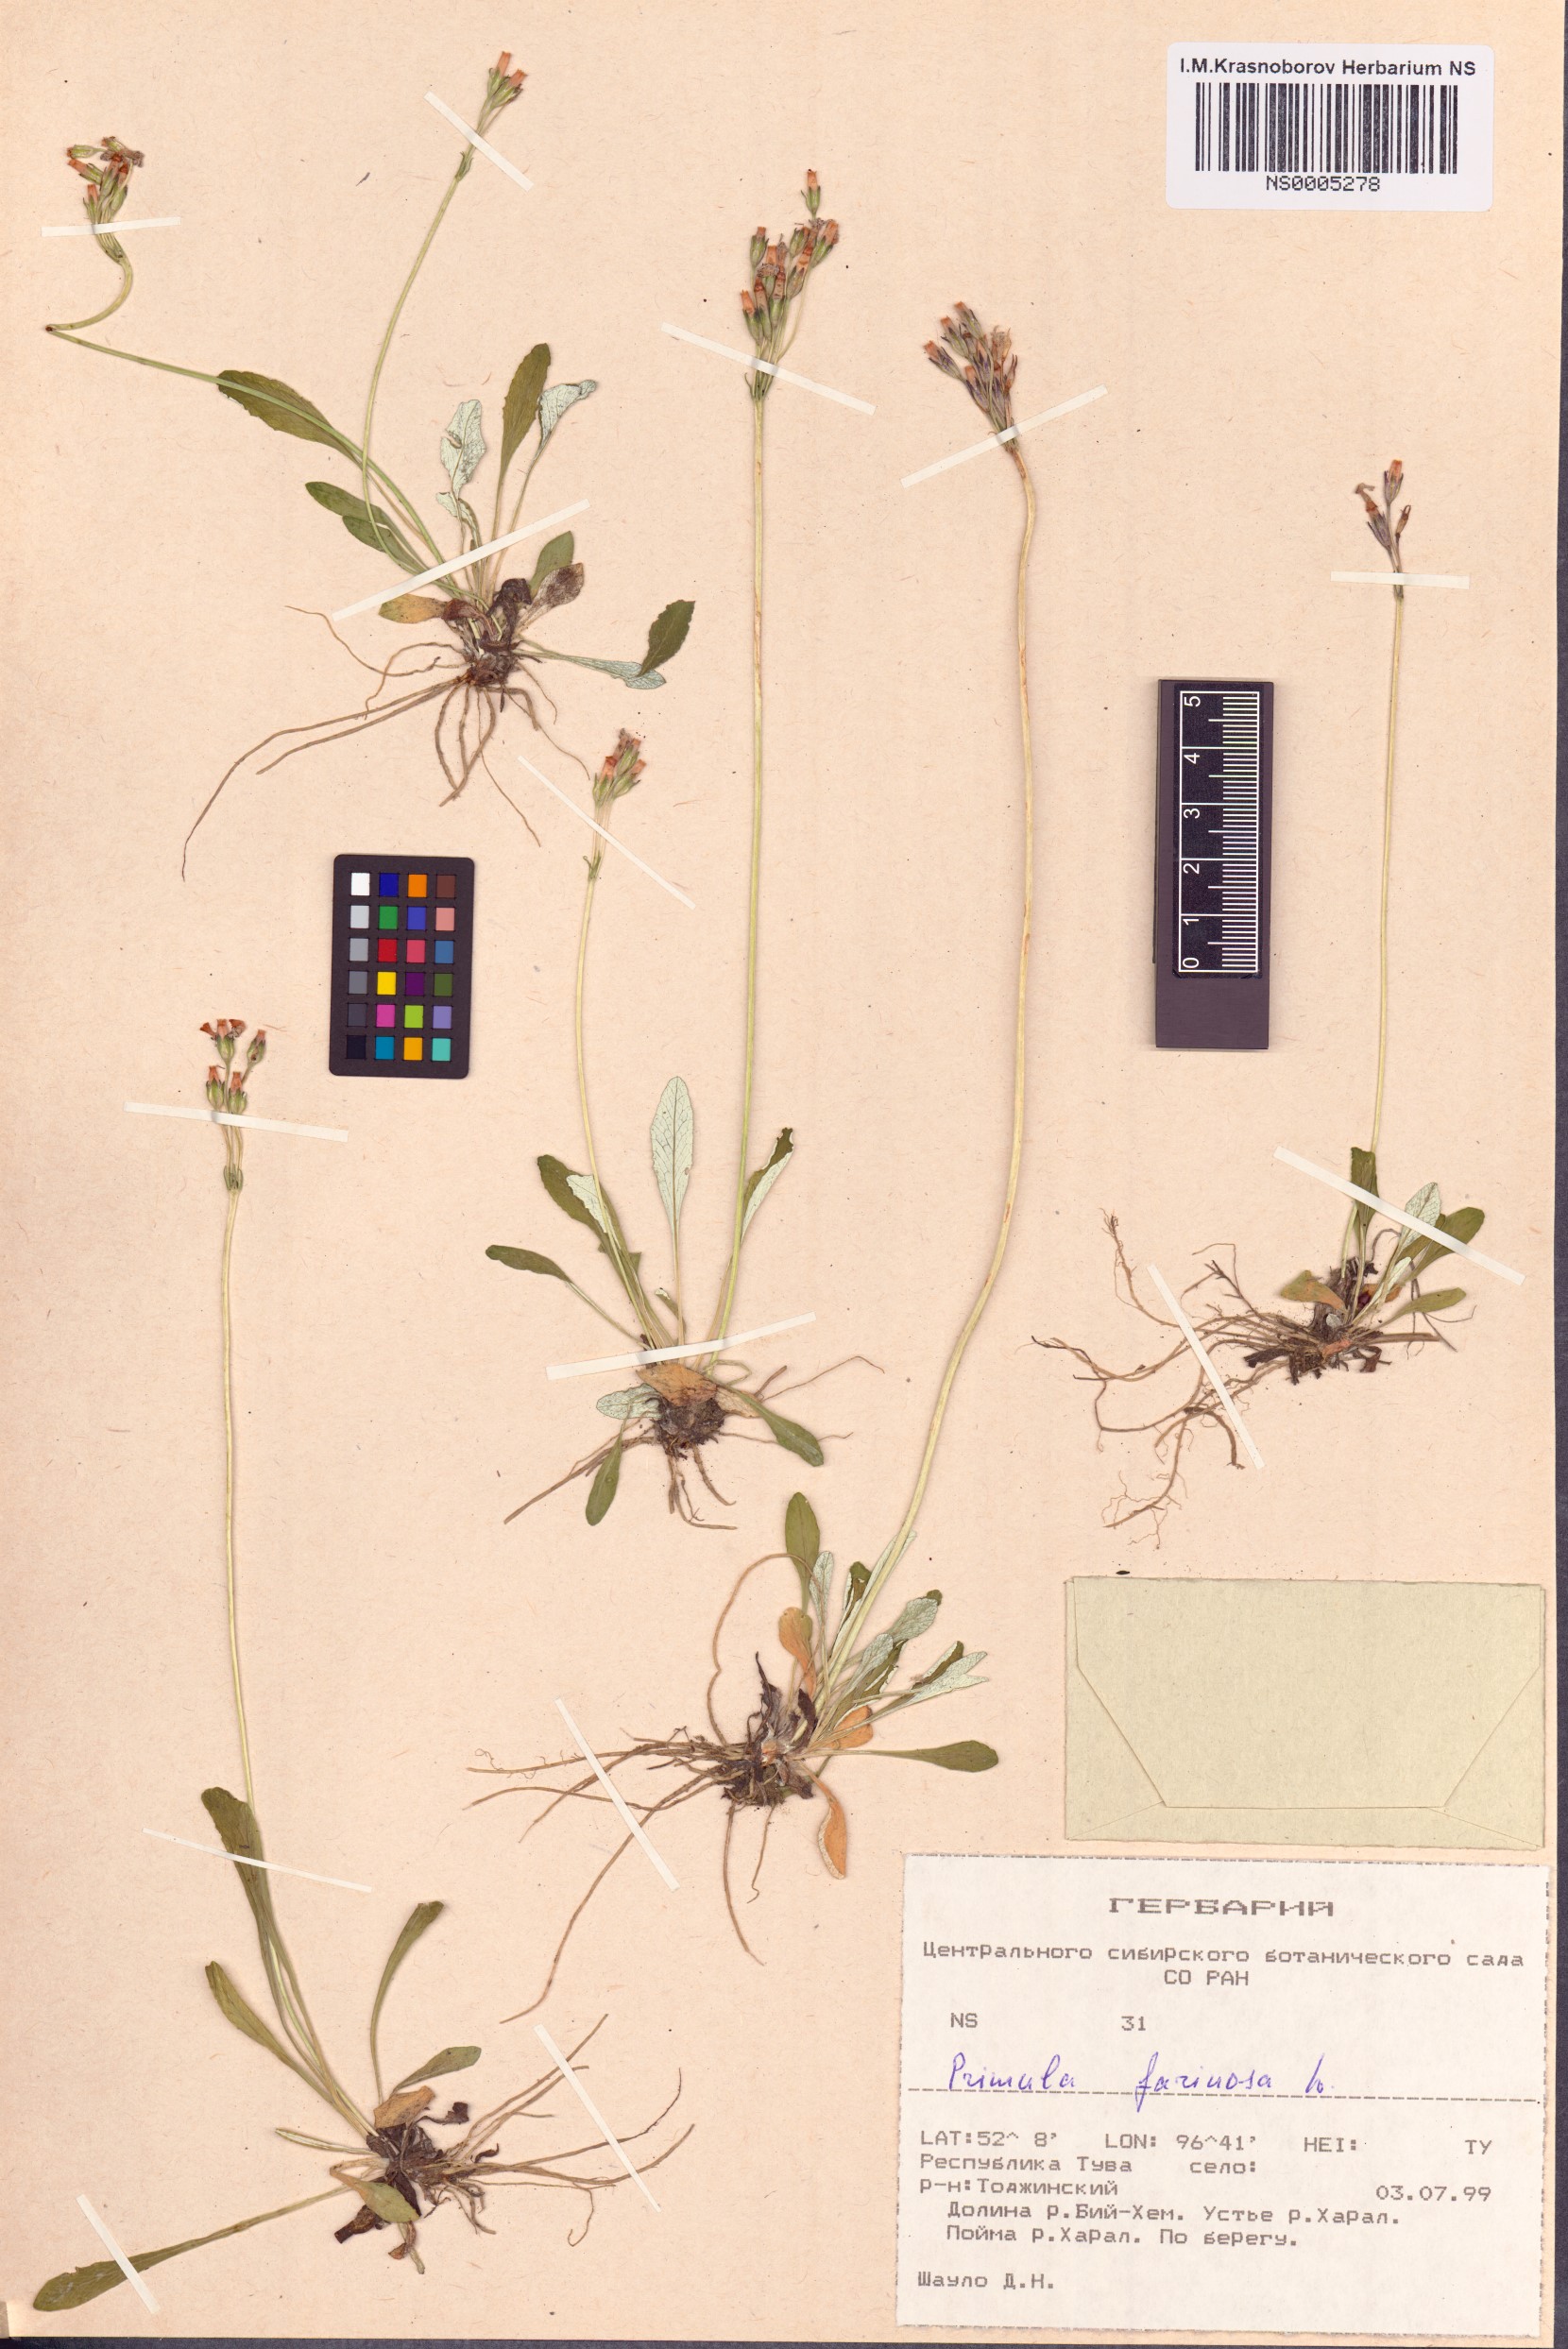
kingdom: Plantae
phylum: Tracheophyta
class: Magnoliopsida
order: Ericales
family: Primulaceae
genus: Primula
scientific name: Primula farinosa
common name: Bird's-eye primrose
